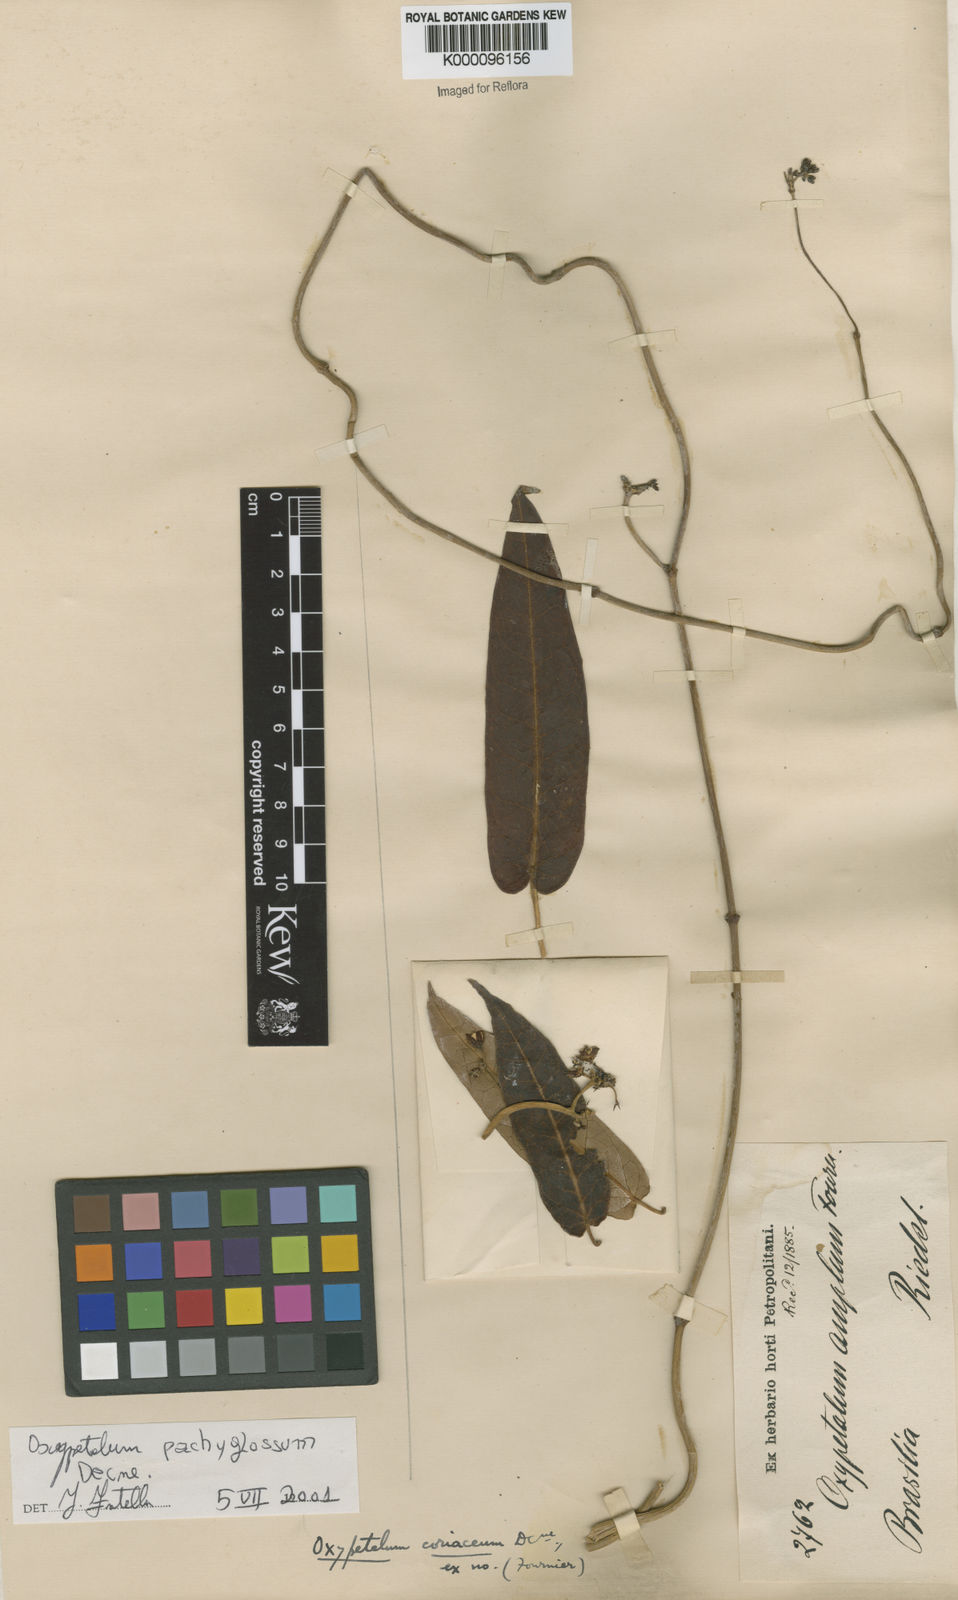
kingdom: Plantae
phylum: Tracheophyta
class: Magnoliopsida
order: Gentianales
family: Apocynaceae
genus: Oxypetalum
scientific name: Oxypetalum pachyglossum
